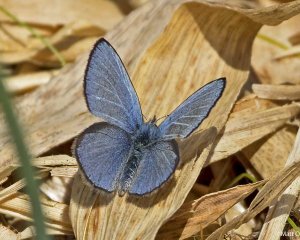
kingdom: Animalia
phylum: Arthropoda
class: Insecta
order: Lepidoptera
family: Lycaenidae
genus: Glaucopsyche
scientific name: Glaucopsyche lygdamus
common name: Silvery Blue
